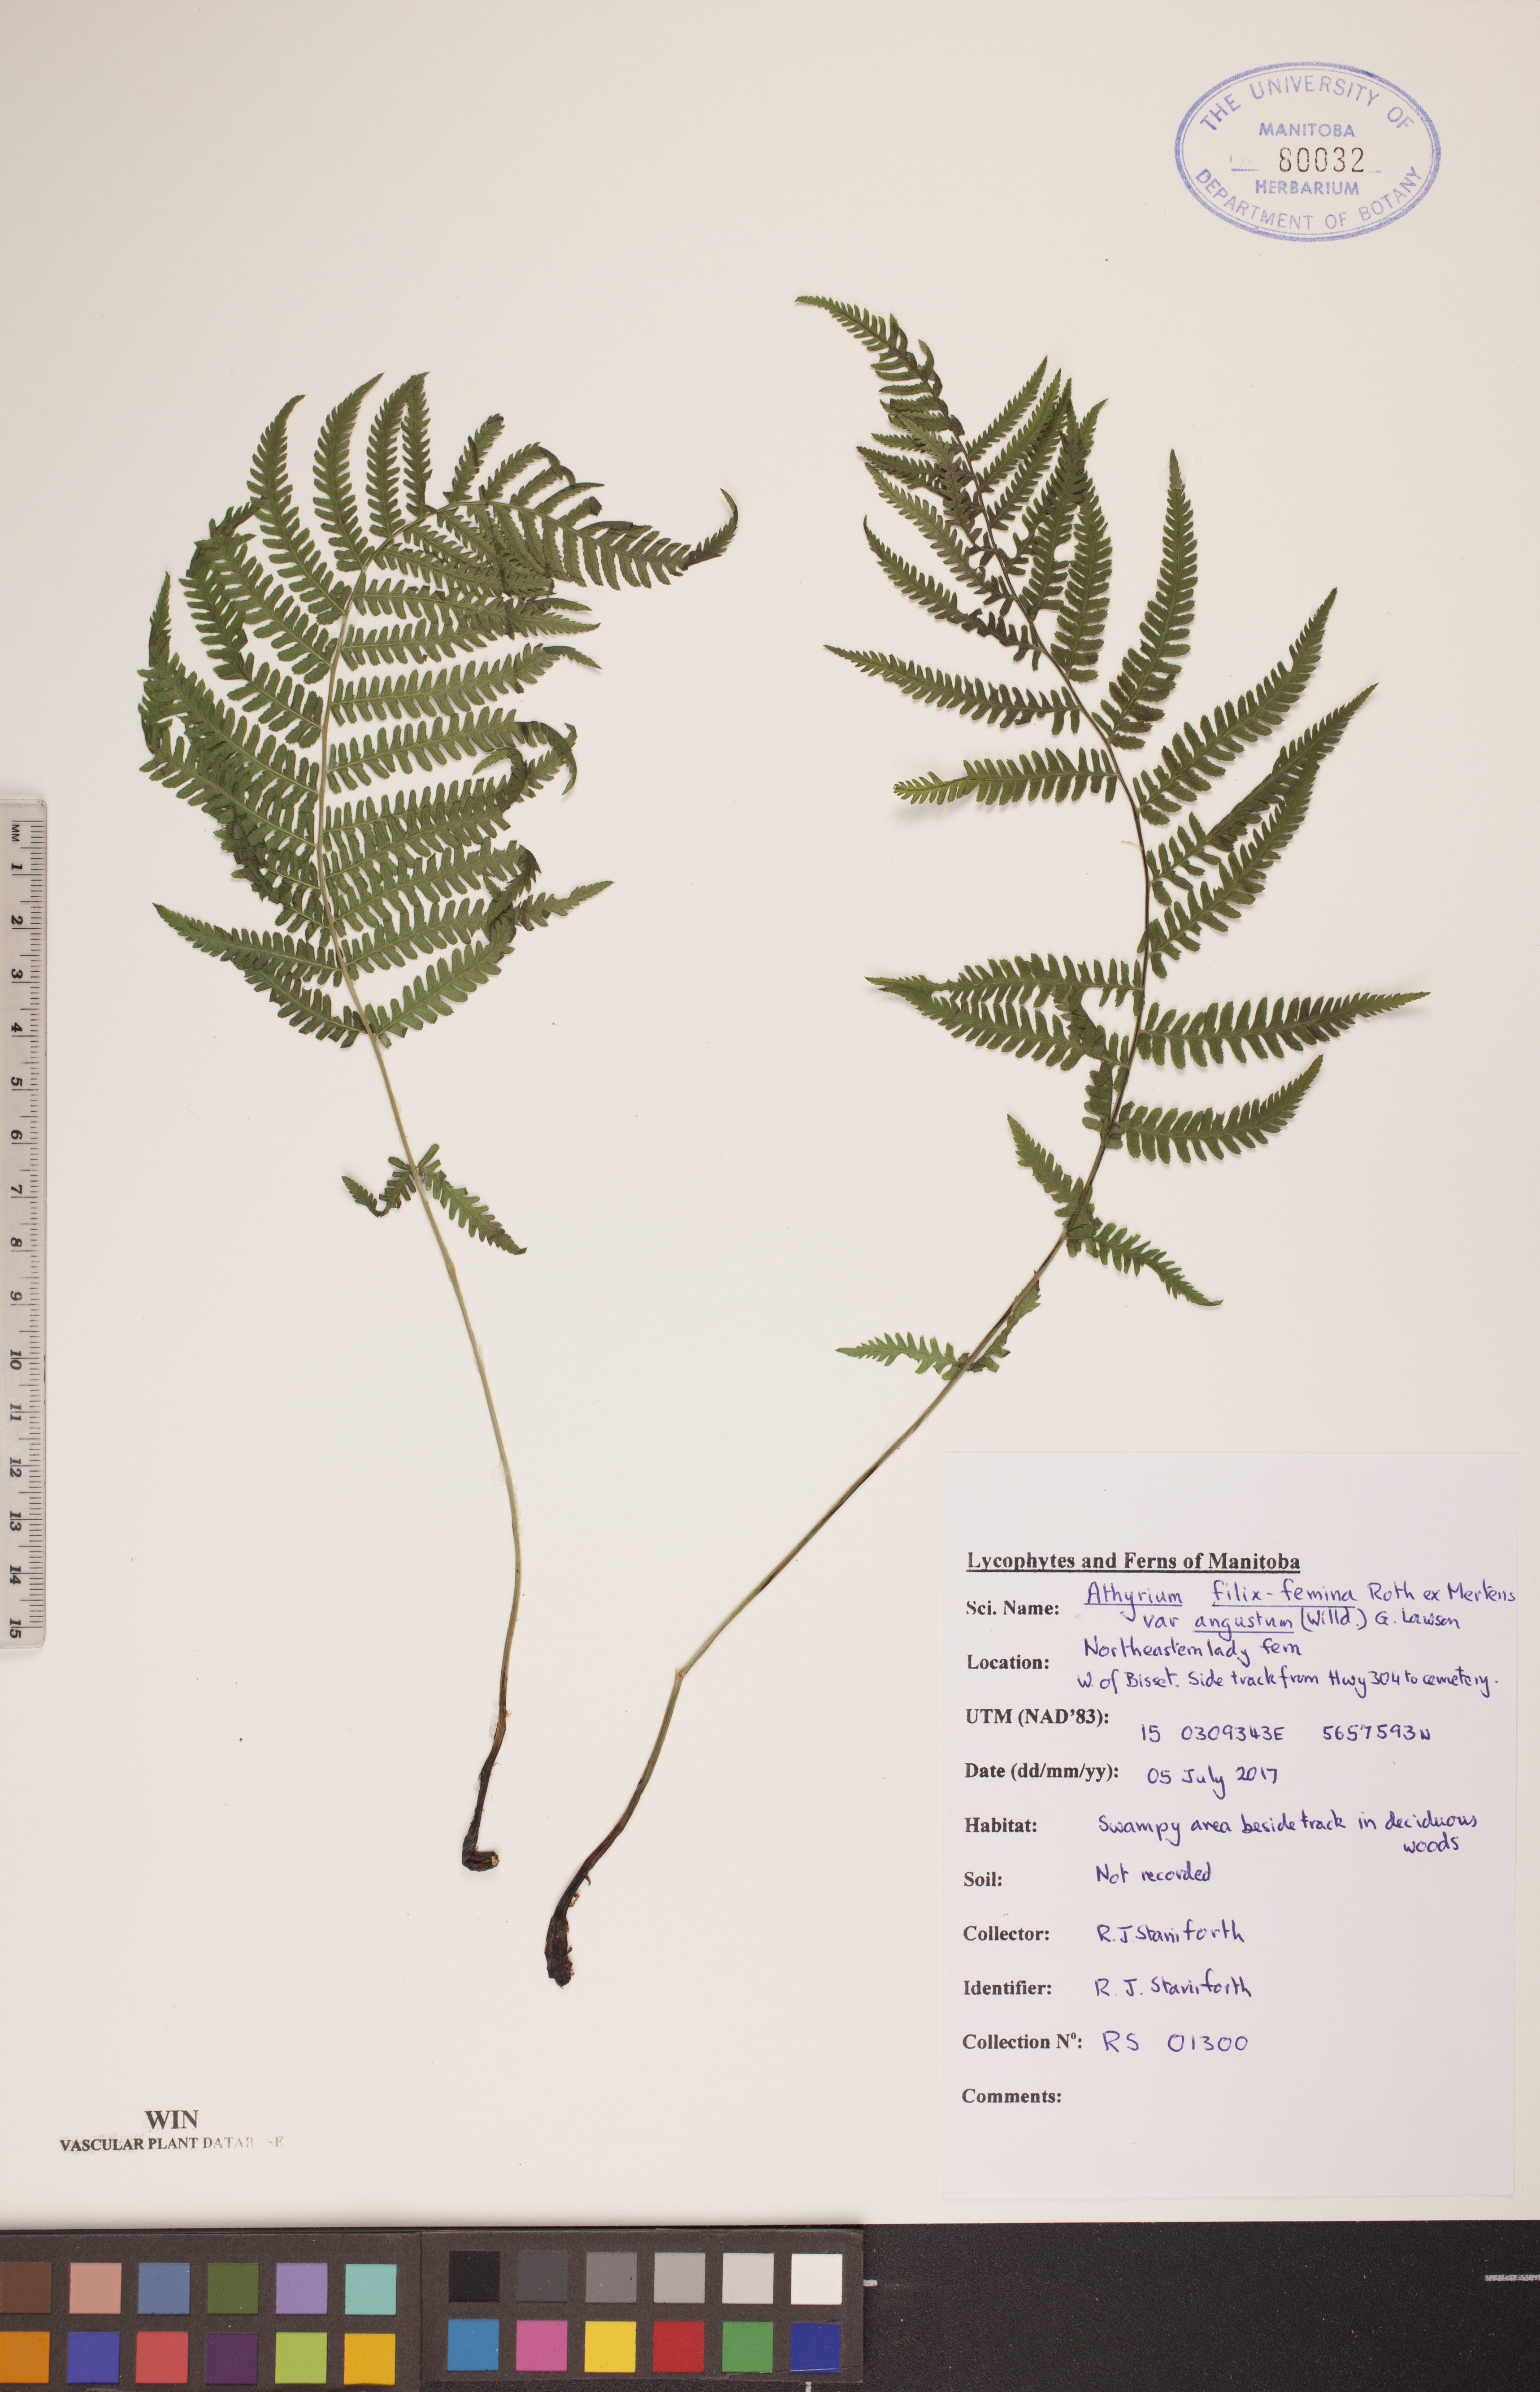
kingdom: Plantae
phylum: Tracheophyta
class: Polypodiopsida
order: Polypodiales
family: Athyriaceae
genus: Athyrium
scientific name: Athyrium angustum
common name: Northern lady fern
